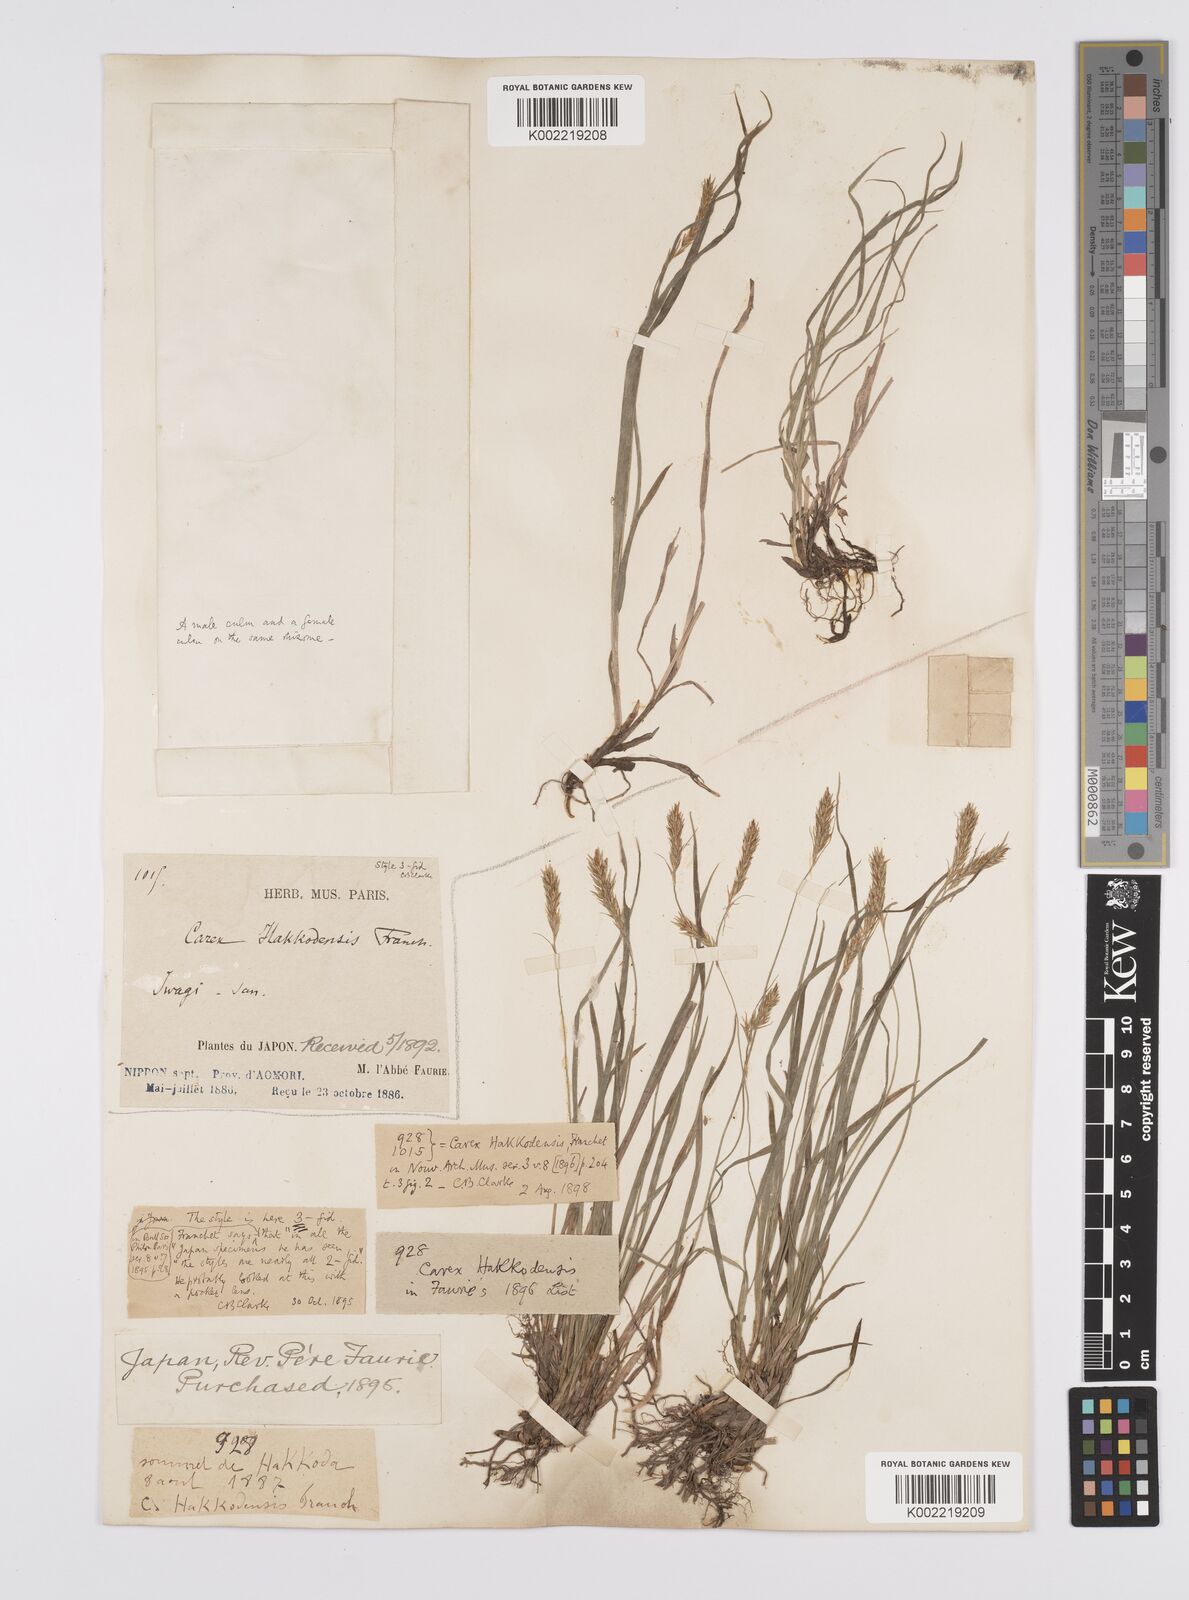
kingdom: Plantae
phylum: Tracheophyta
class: Liliopsida
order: Poales
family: Cyperaceae
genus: Carex
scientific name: Carex hakkodensis
